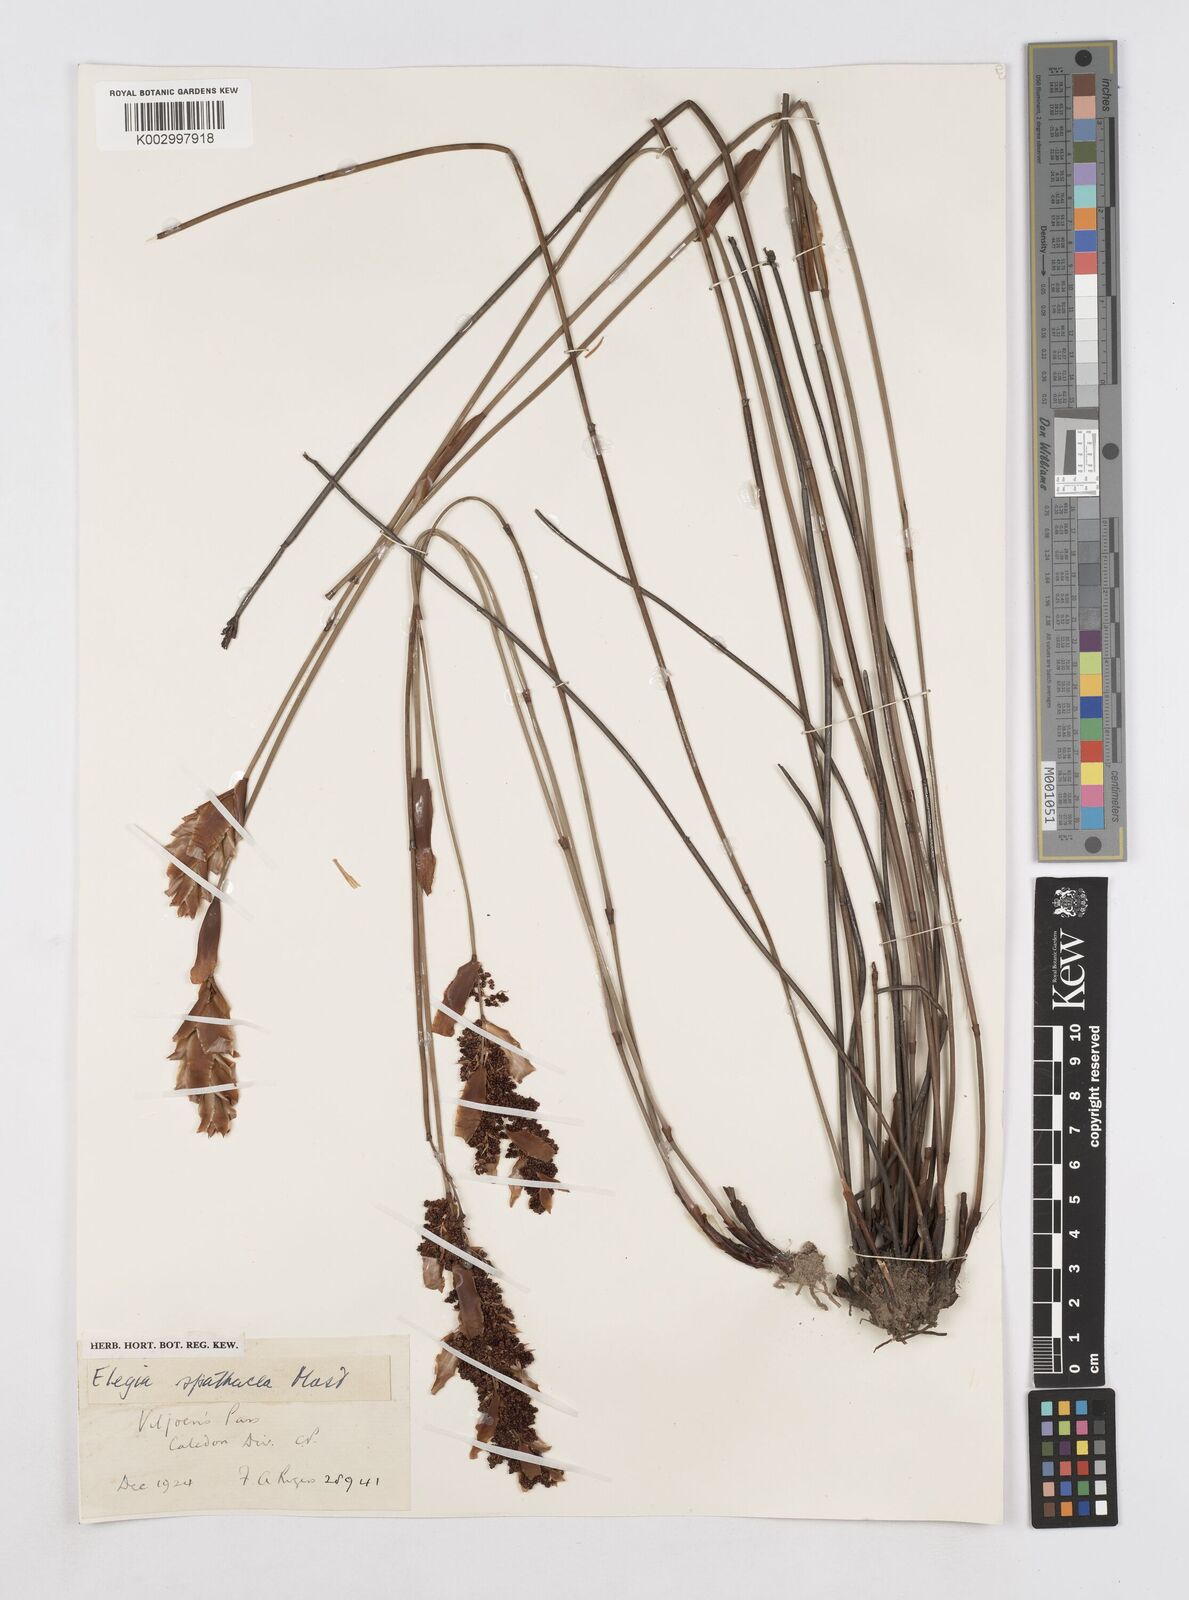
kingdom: Plantae
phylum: Tracheophyta
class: Liliopsida
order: Poales
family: Restionaceae
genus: Elegia
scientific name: Elegia spathacea
